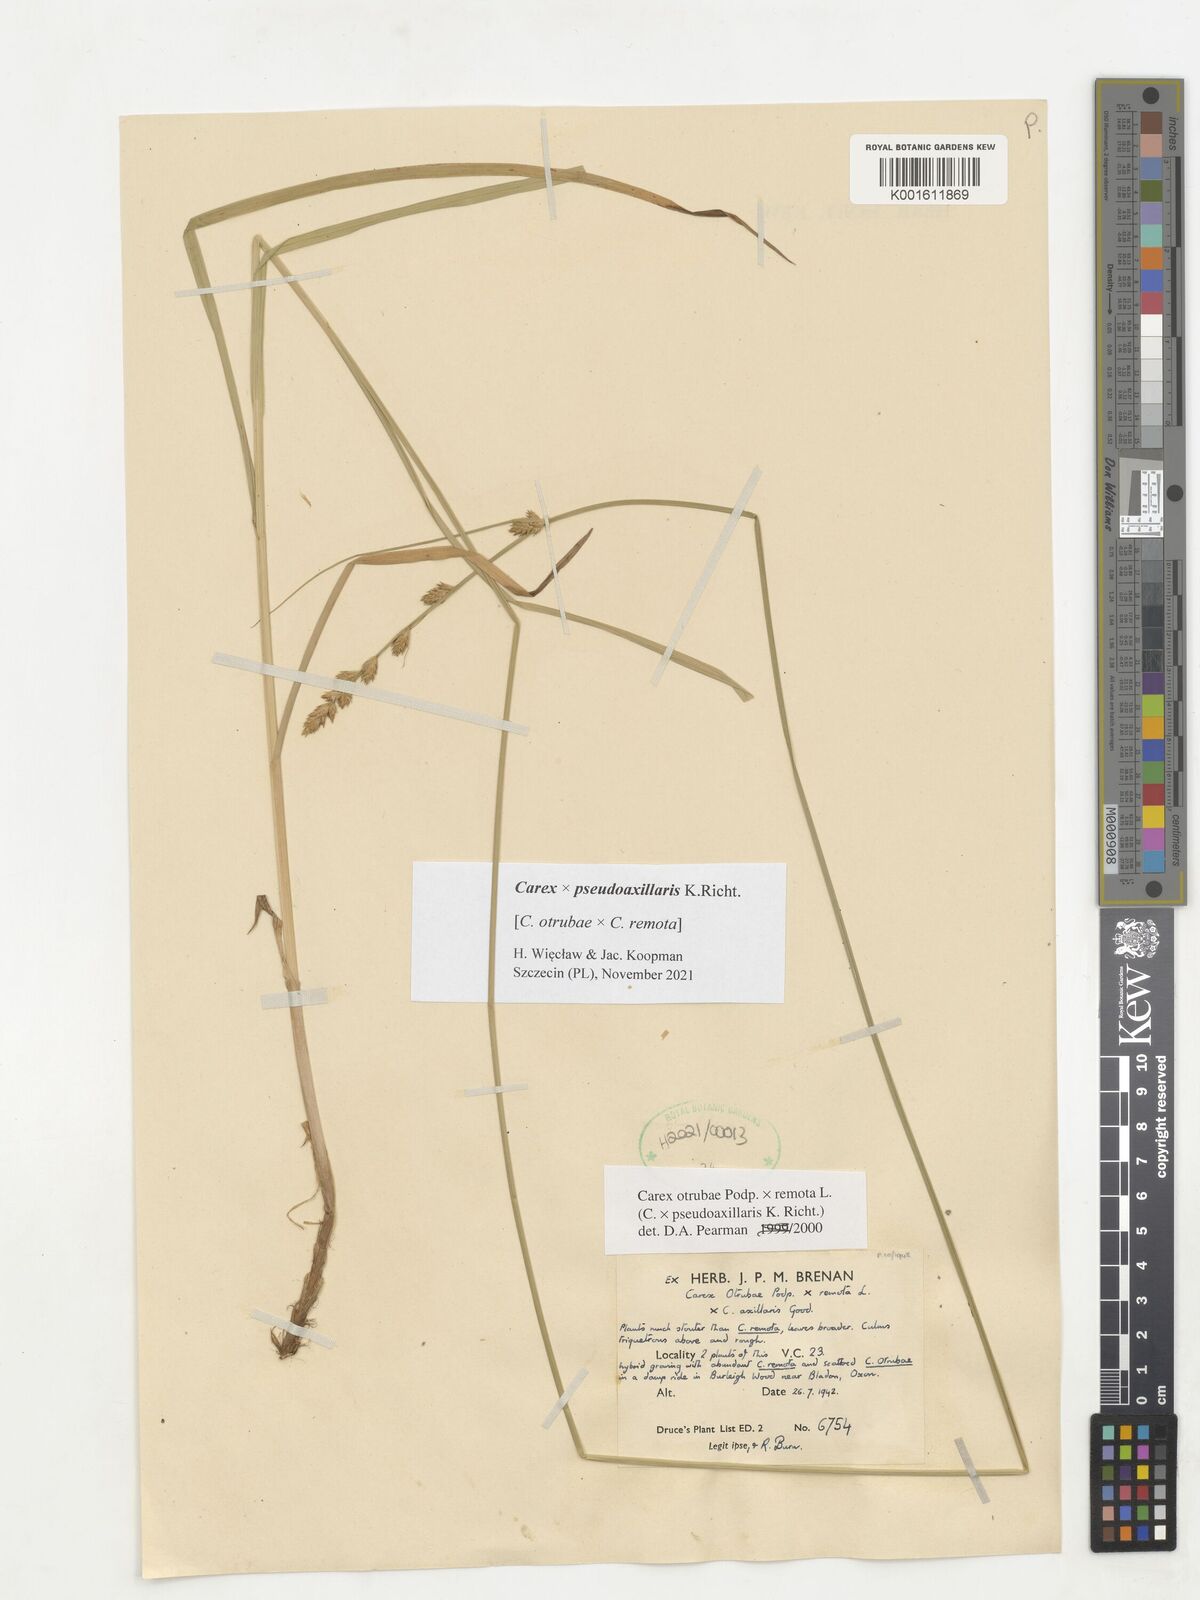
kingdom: Plantae
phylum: Tracheophyta
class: Liliopsida
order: Poales
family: Cyperaceae
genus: Carex
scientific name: Carex pseudoaxillaris
